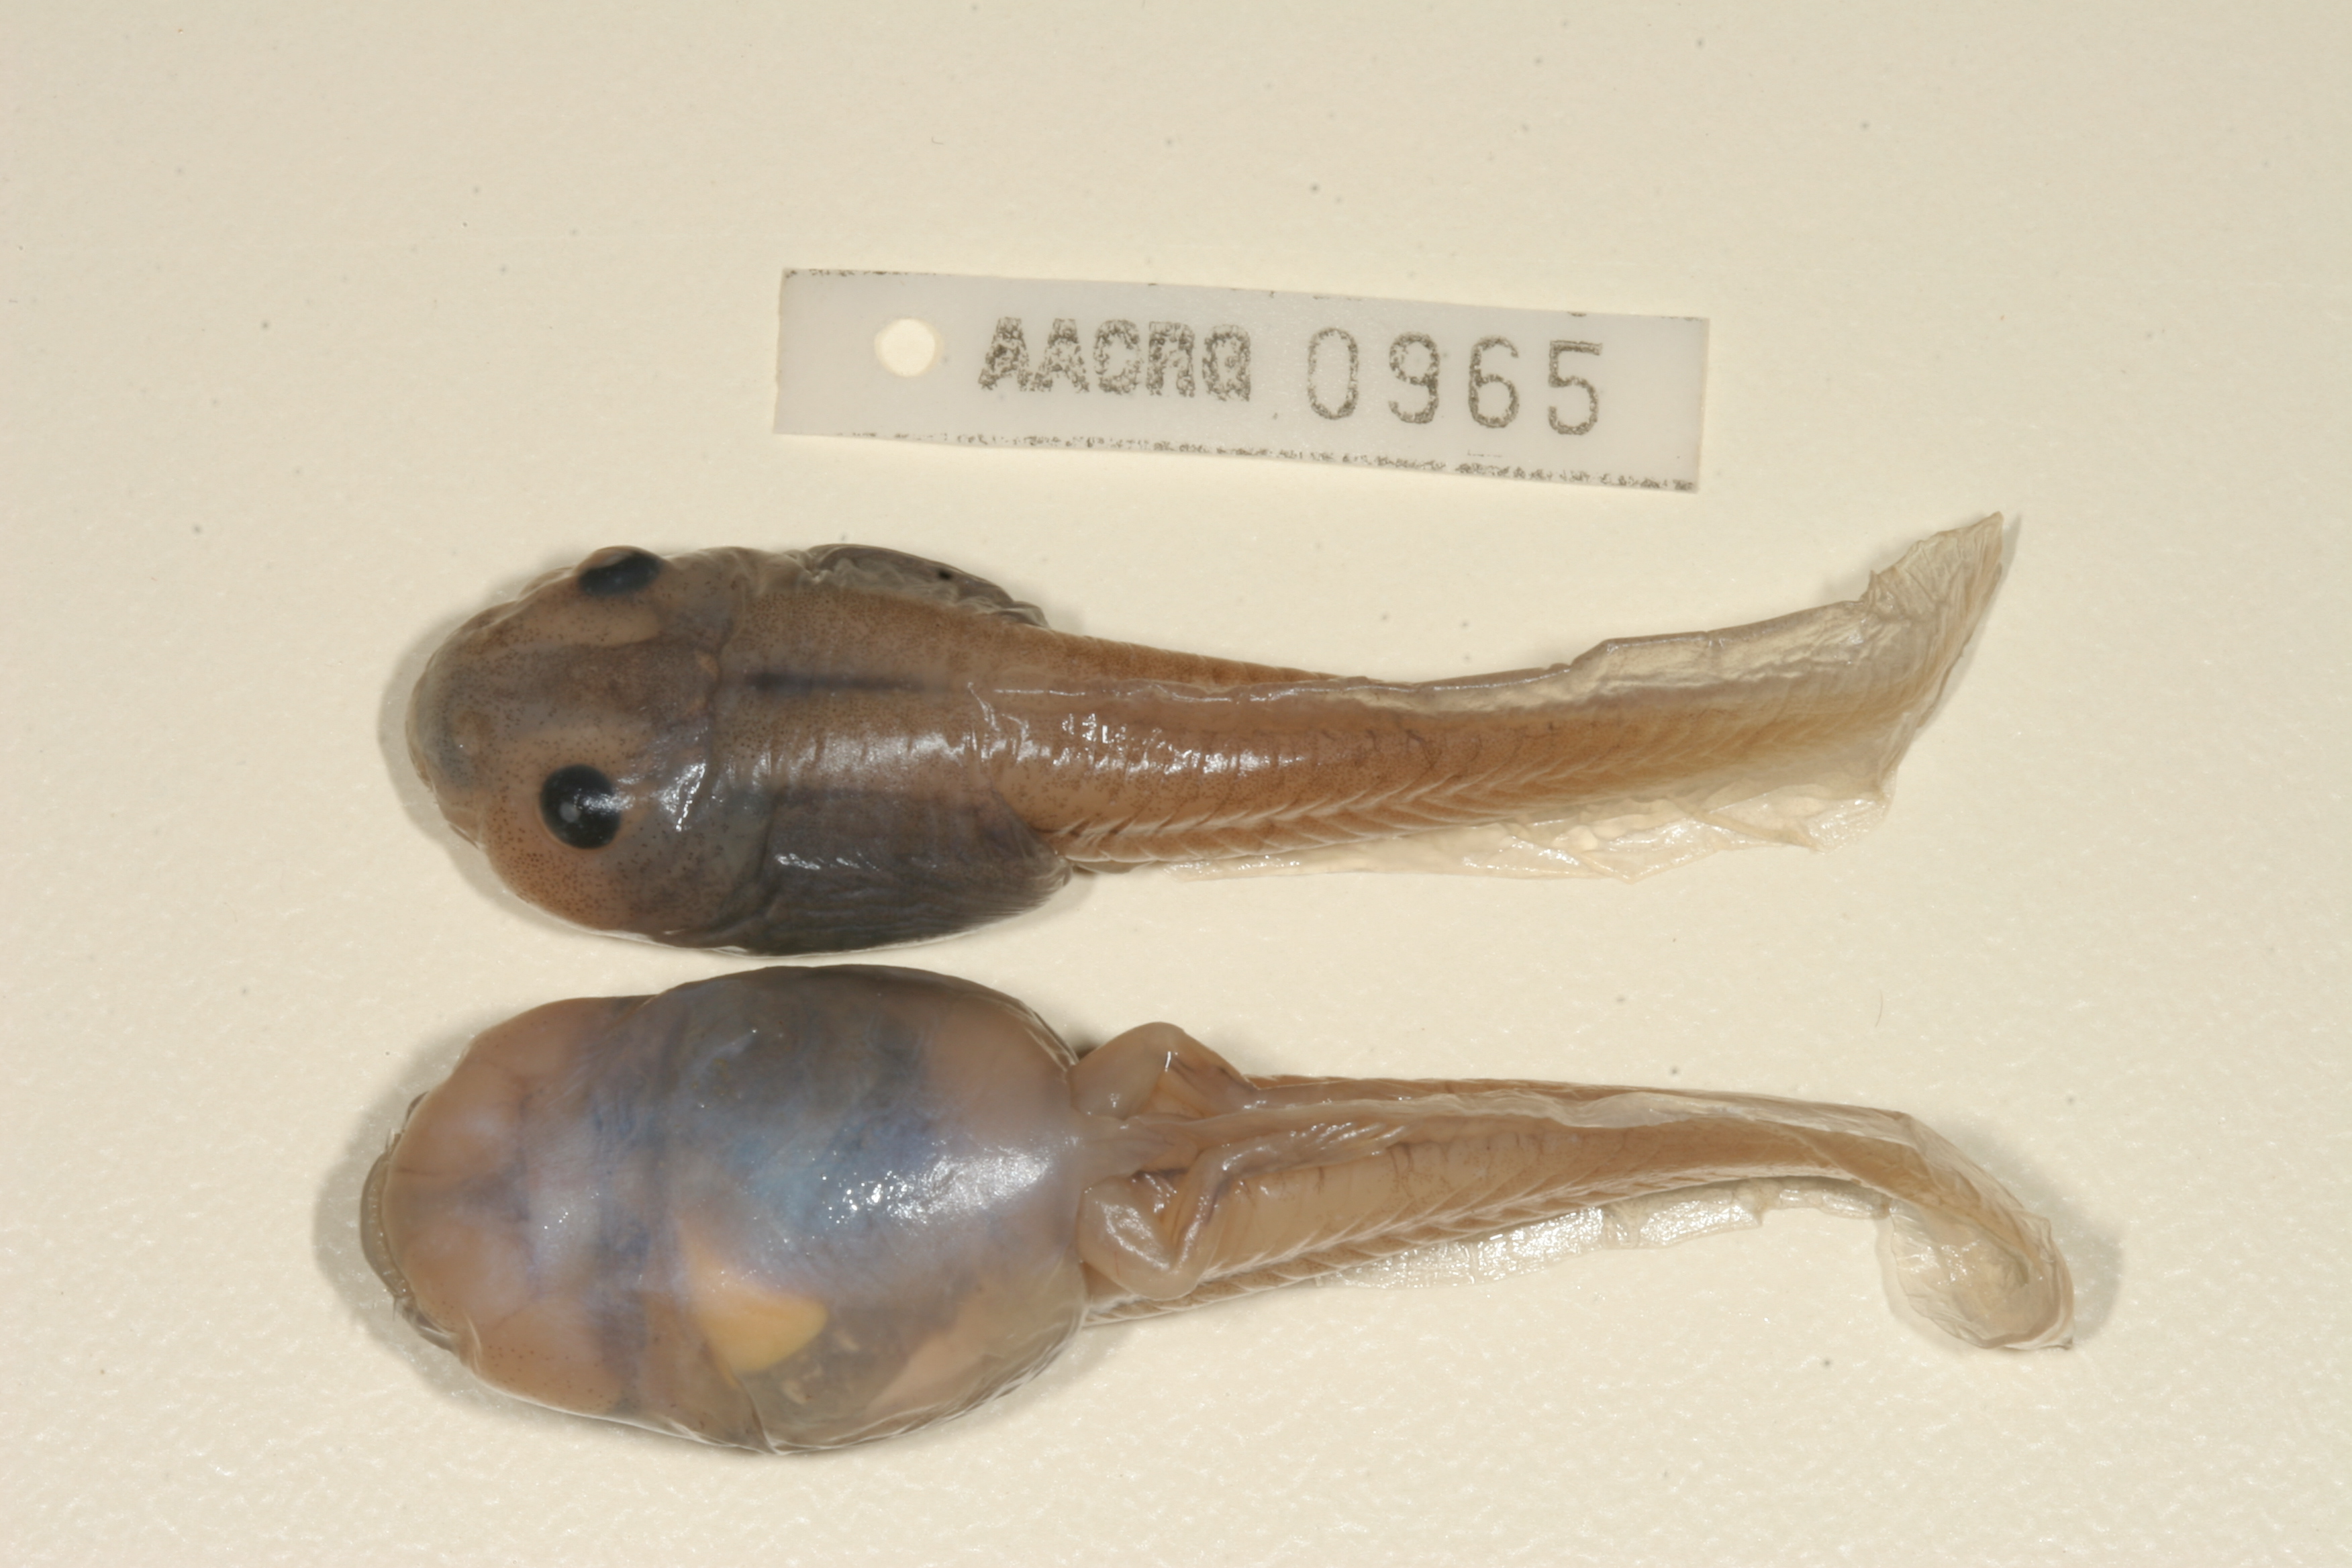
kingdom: Animalia
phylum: Chordata
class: Amphibia
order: Anura
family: Ptychadenidae
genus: Hildebrandtia
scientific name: Hildebrandtia ornata
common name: Ornate frog
